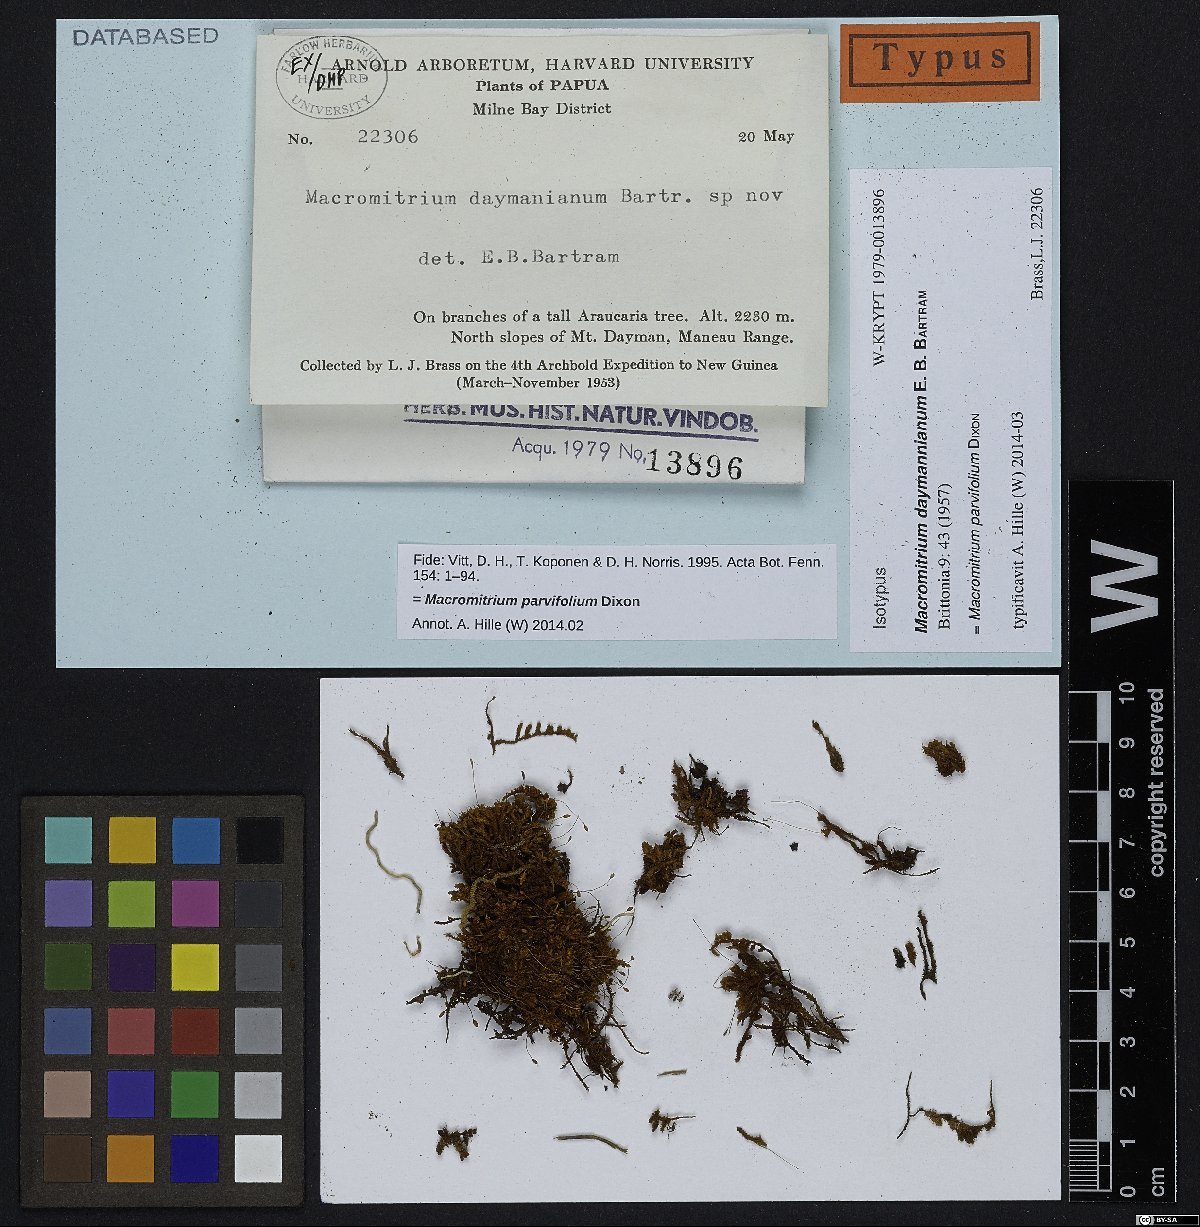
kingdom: Plantae
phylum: Bryophyta
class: Bryopsida
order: Orthotrichales
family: Orthotrichaceae
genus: Macromitrium
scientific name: Macromitrium parvifolium
